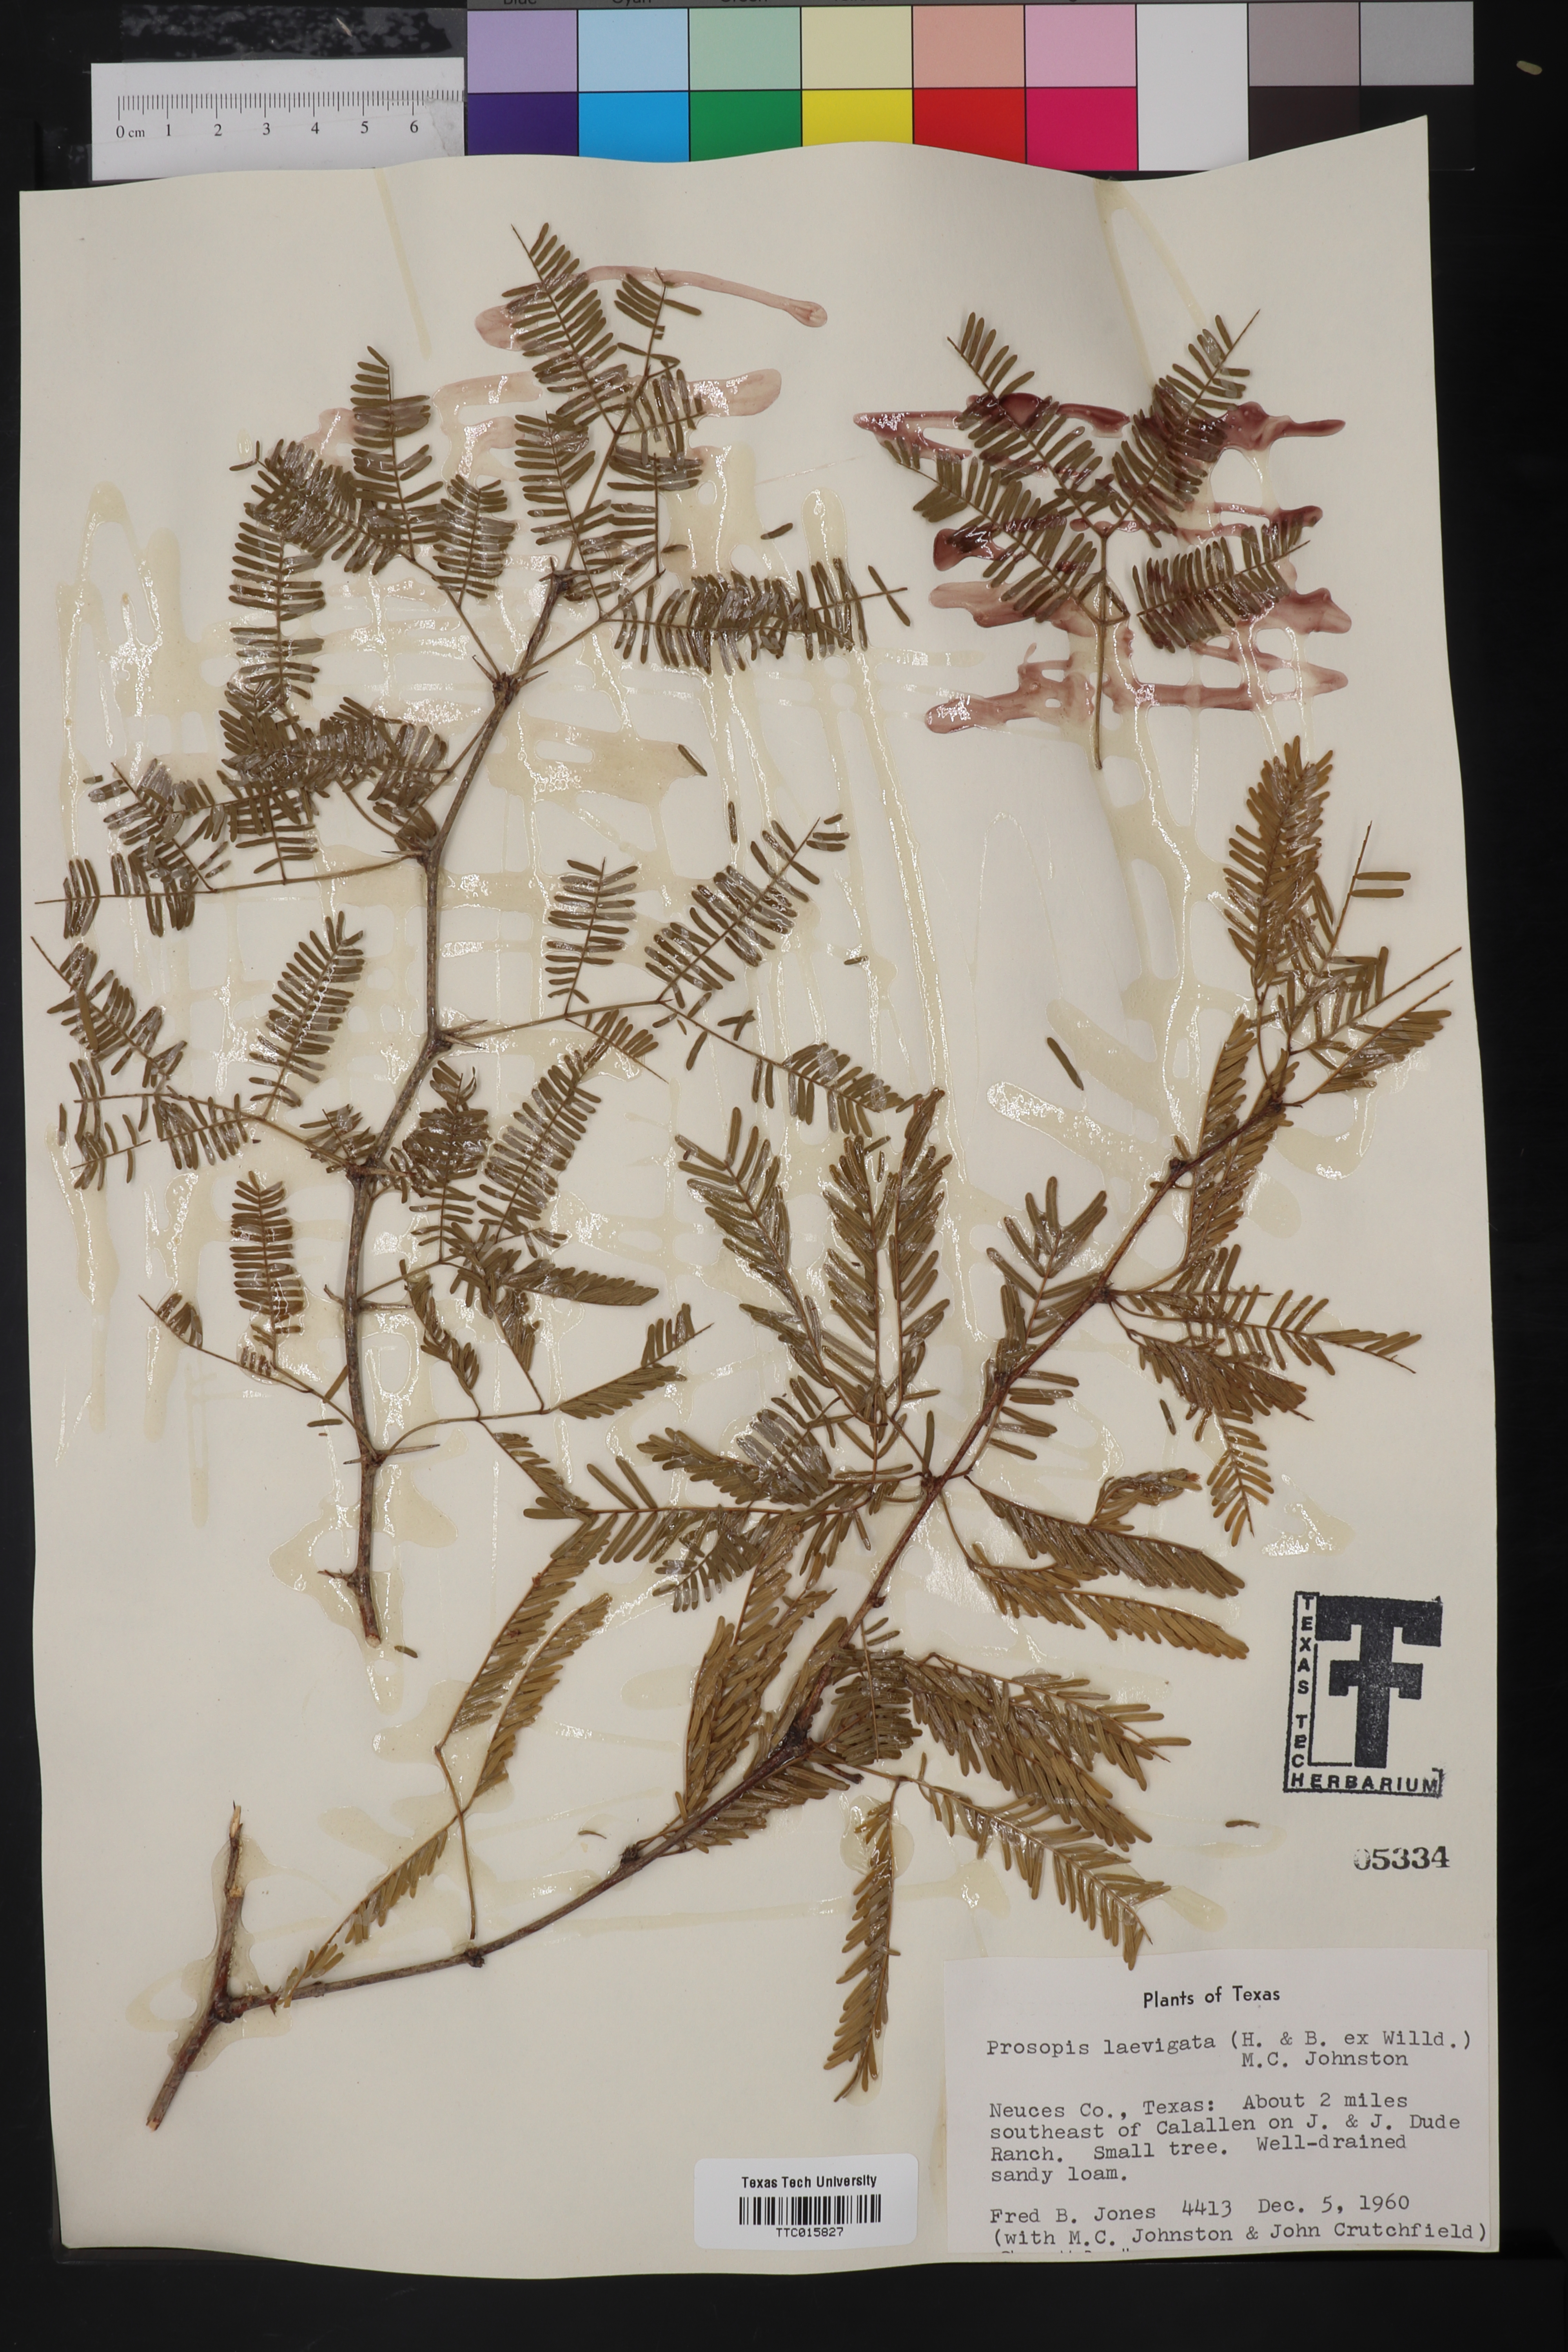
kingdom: Plantae
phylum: Tracheophyta
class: Magnoliopsida
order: Fabales
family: Fabaceae
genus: Prosopis
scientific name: Prosopis laevigata
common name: Smooth mesquite
